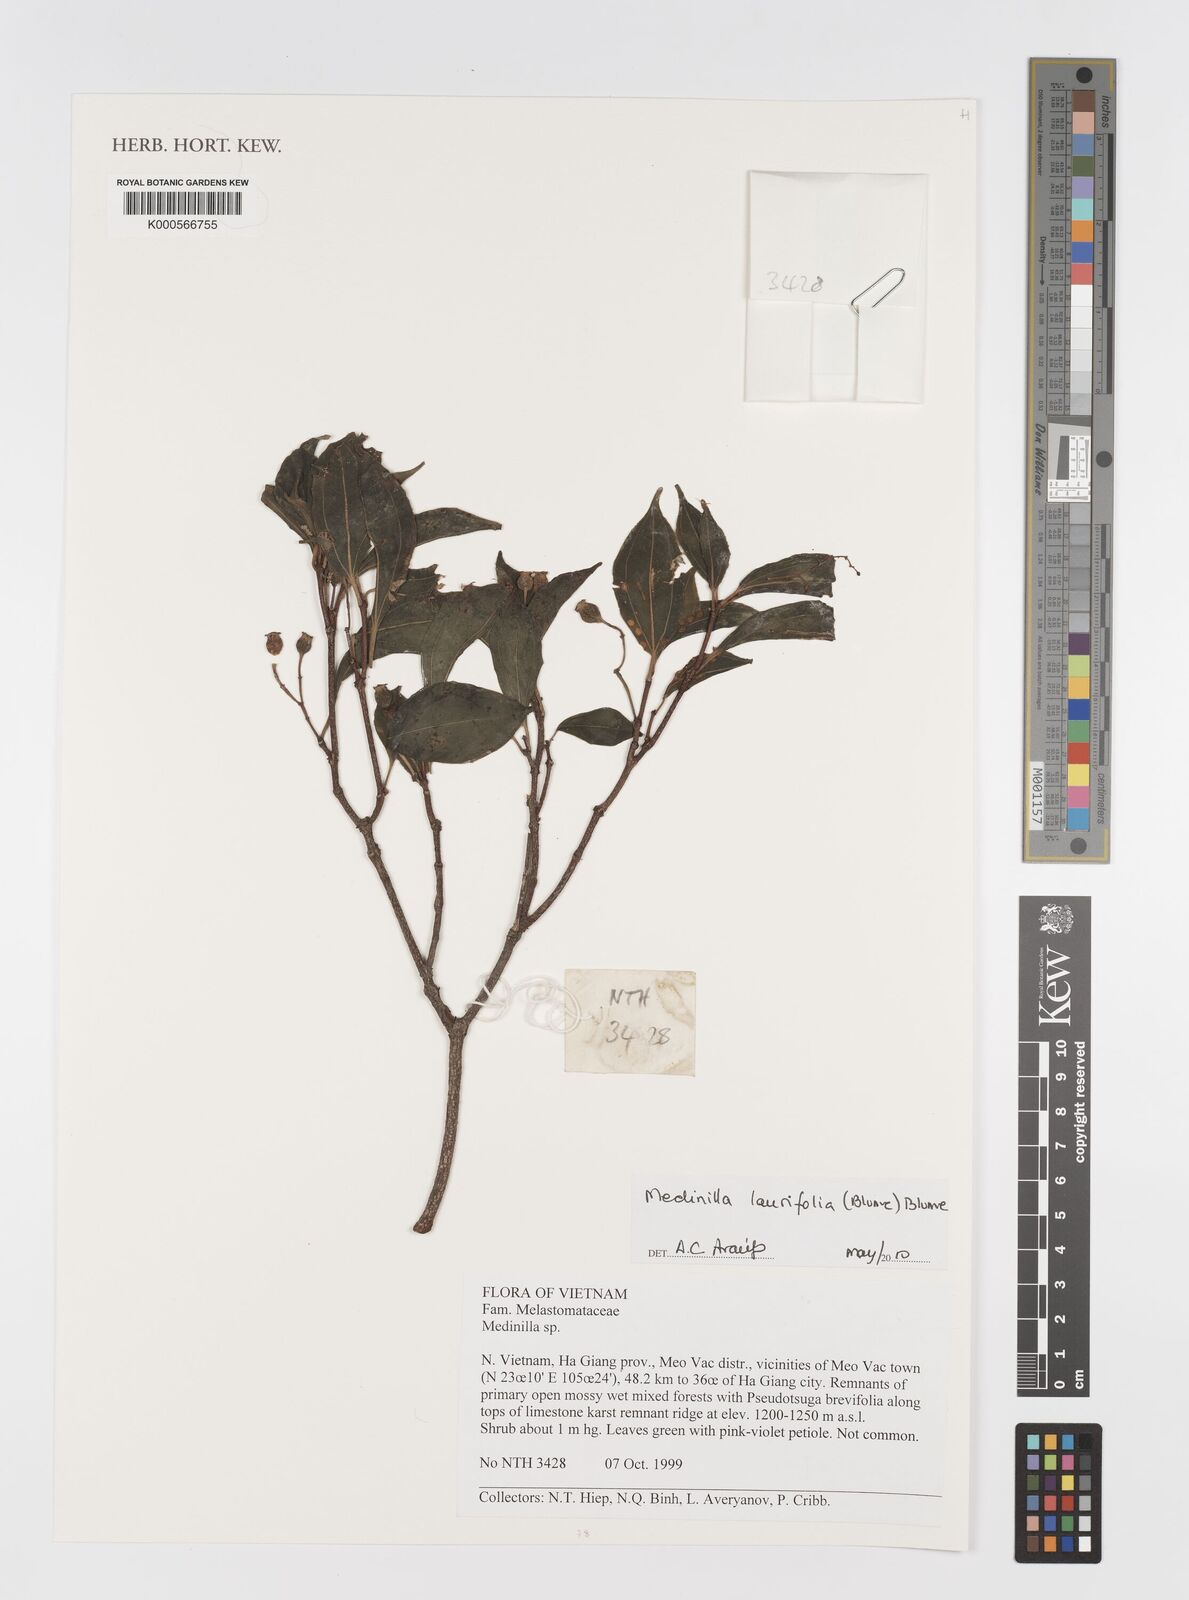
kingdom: Plantae
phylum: Tracheophyta
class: Magnoliopsida
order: Myrtales
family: Melastomataceae
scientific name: Melastomataceae
